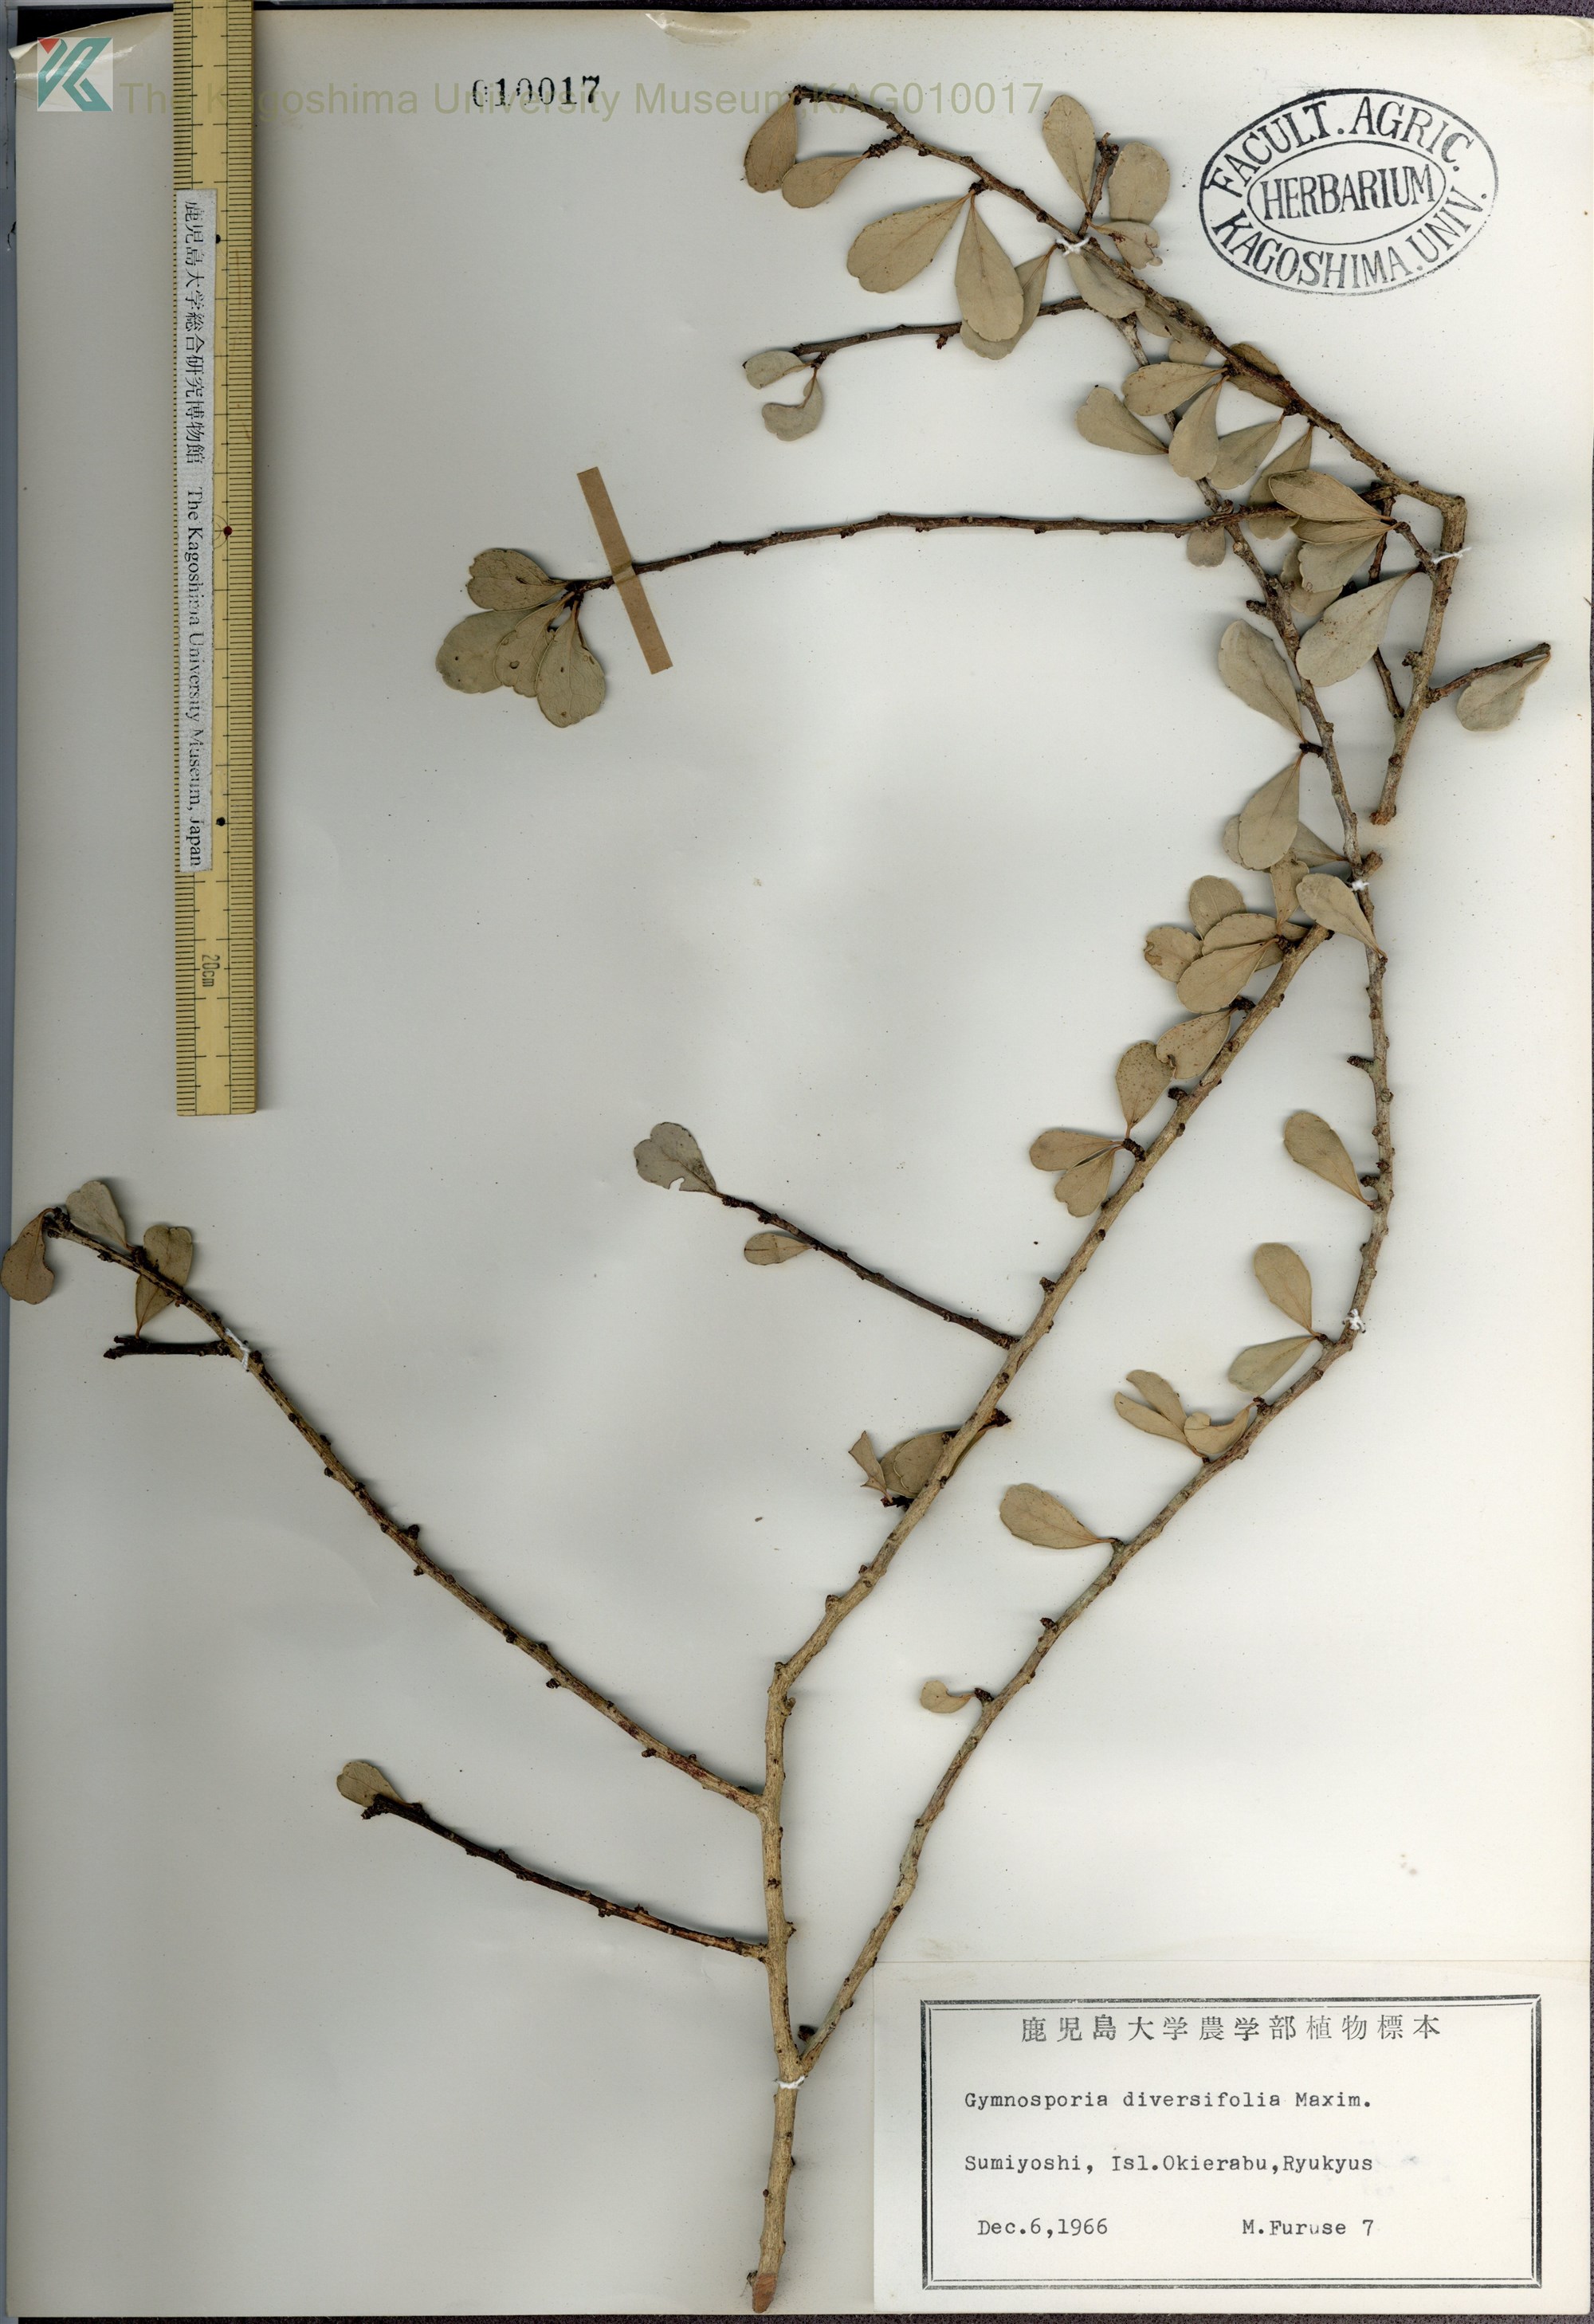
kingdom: Plantae
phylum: Tracheophyta
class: Magnoliopsida
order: Celastrales
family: Celastraceae
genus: Gymnosporia
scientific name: Gymnosporia diversifolia
